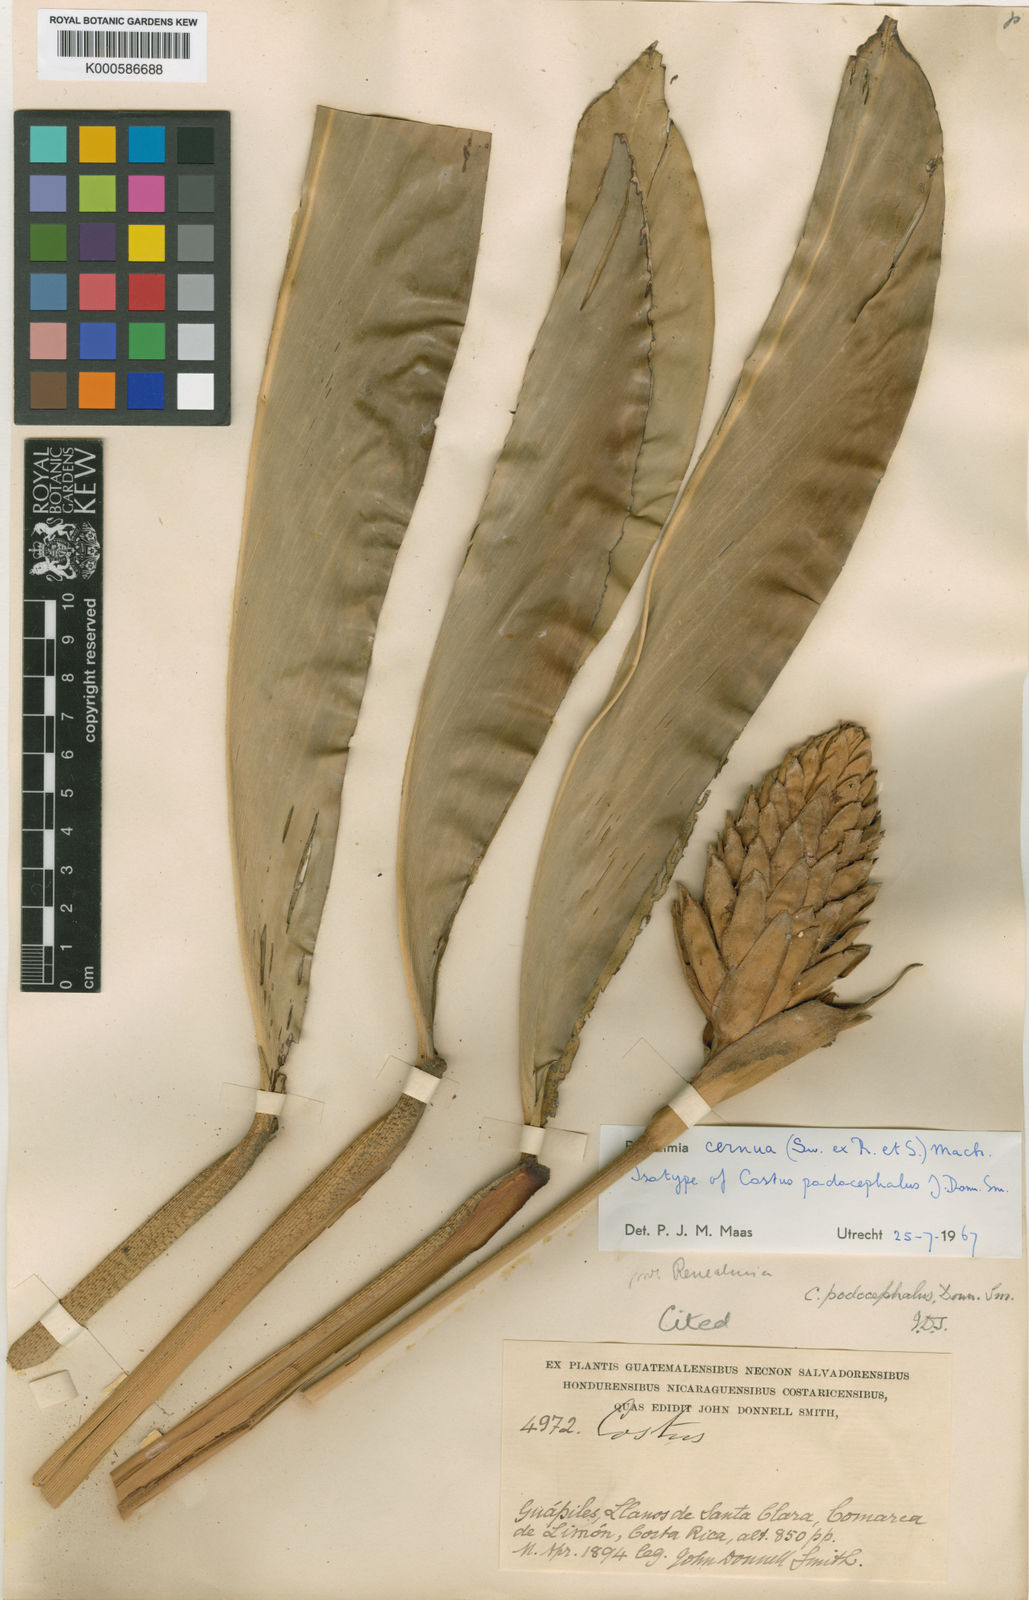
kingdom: Plantae
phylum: Tracheophyta
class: Liliopsida
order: Zingiberales
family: Zingiberaceae
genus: Renealmia
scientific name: Renealmia cernua
